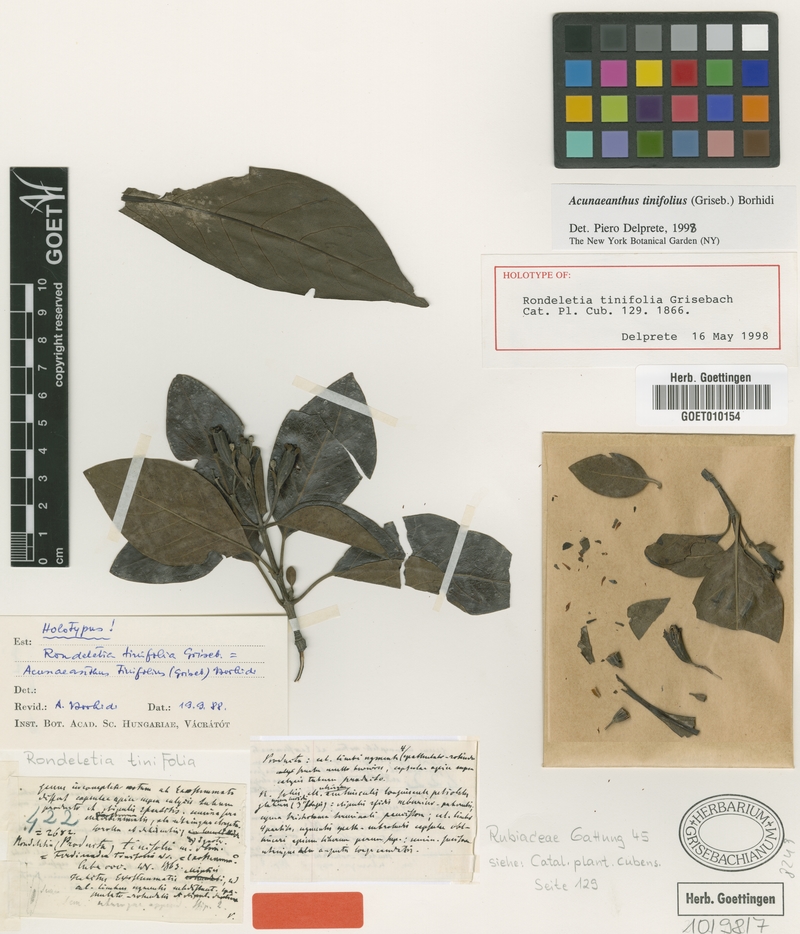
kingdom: Plantae
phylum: Tracheophyta
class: Magnoliopsida
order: Gentianales
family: Rubiaceae
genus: Acunaeanthus
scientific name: Acunaeanthus tinifolius
